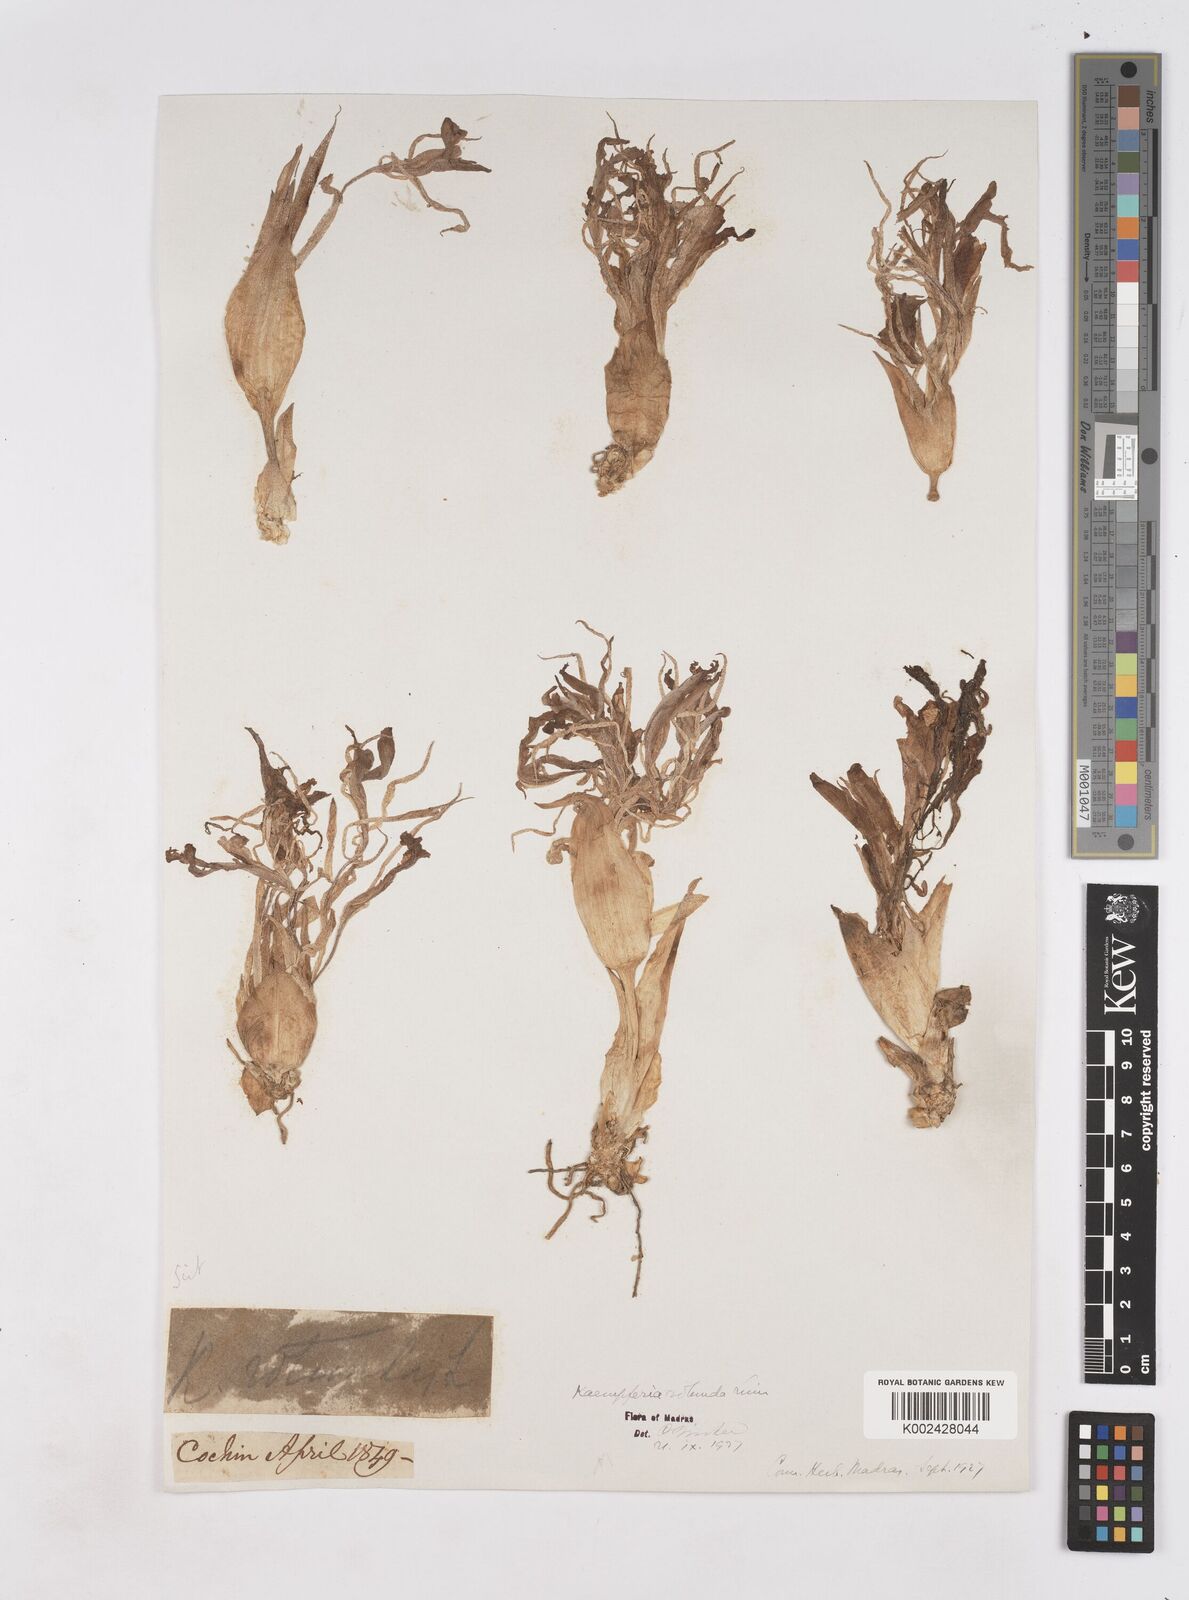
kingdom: Plantae
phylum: Tracheophyta
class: Liliopsida
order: Zingiberales
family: Zingiberaceae
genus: Kaempferia
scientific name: Kaempferia rotunda
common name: Tropical-crocus
